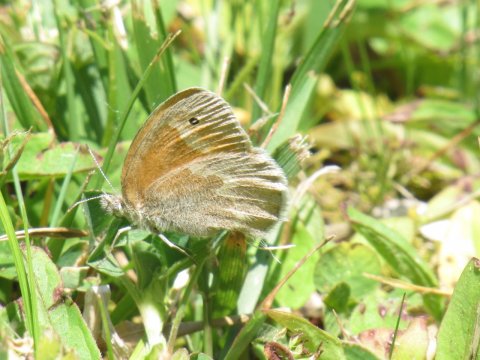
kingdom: Animalia
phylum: Arthropoda
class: Insecta
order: Lepidoptera
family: Nymphalidae
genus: Coenonympha
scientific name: Coenonympha tullia
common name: Large Heath
